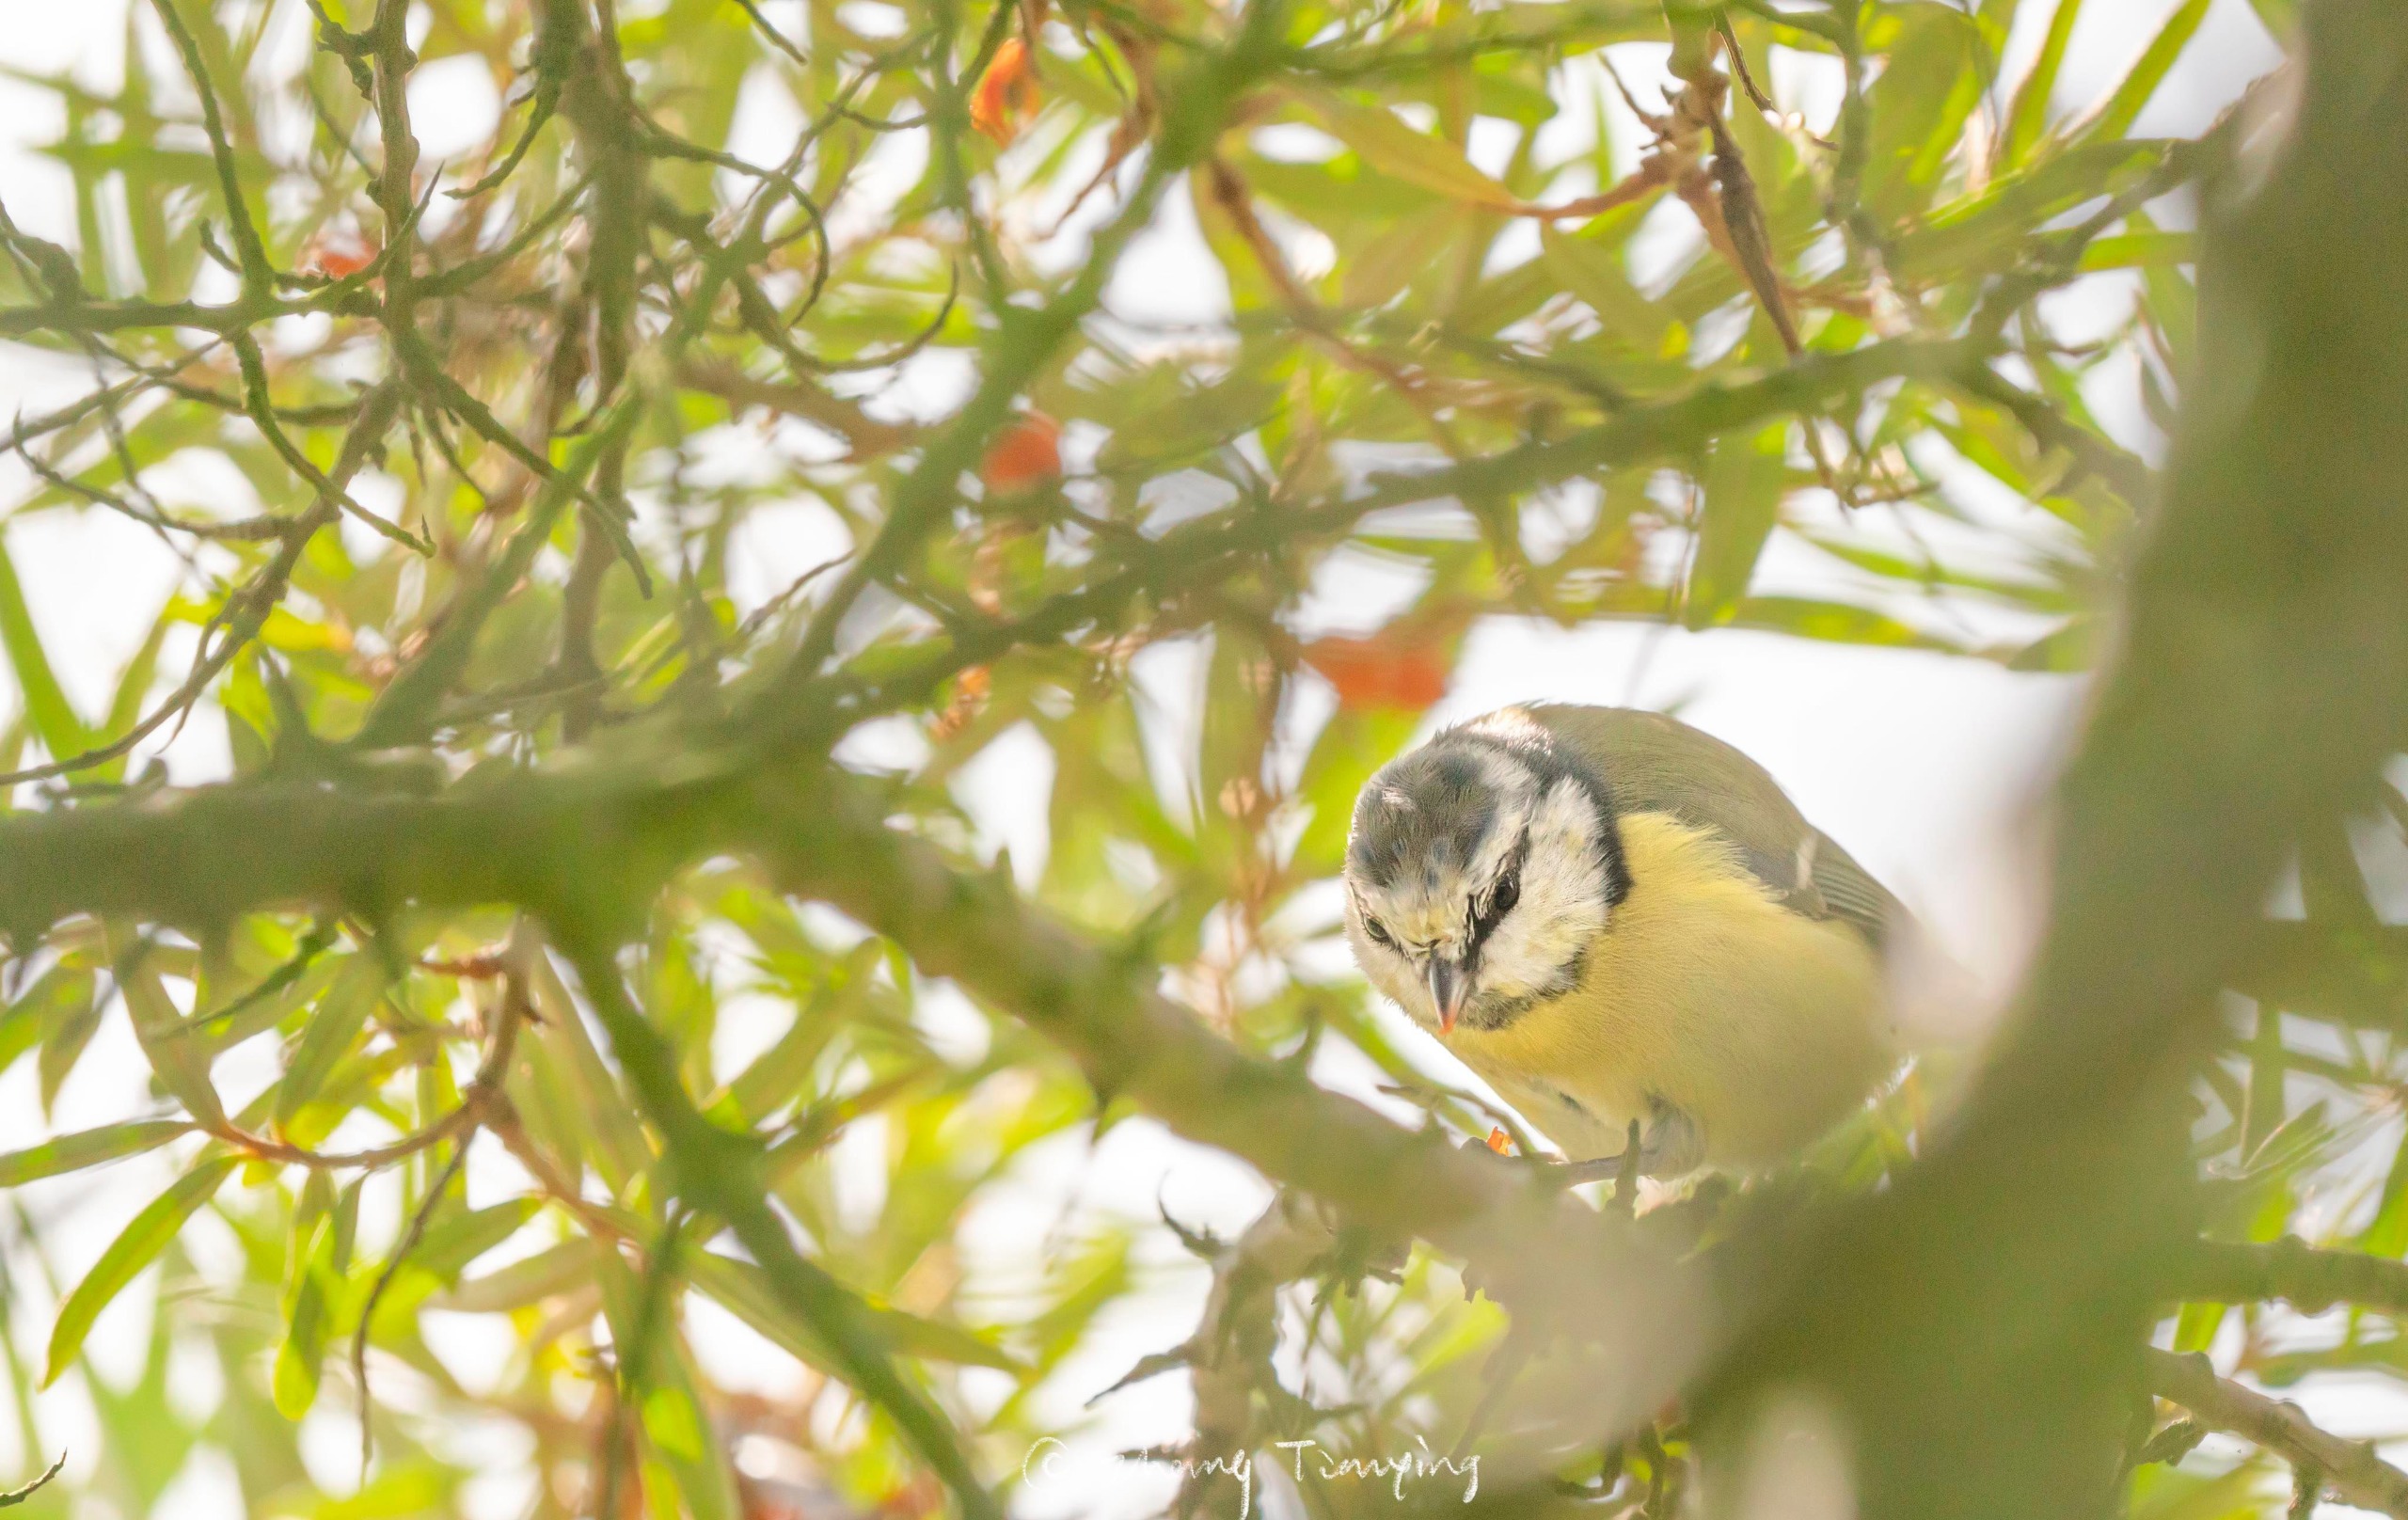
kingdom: Animalia
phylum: Chordata
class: Aves
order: Passeriformes
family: Paridae
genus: Cyanistes
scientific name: Cyanistes caeruleus
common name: Blåmejse
